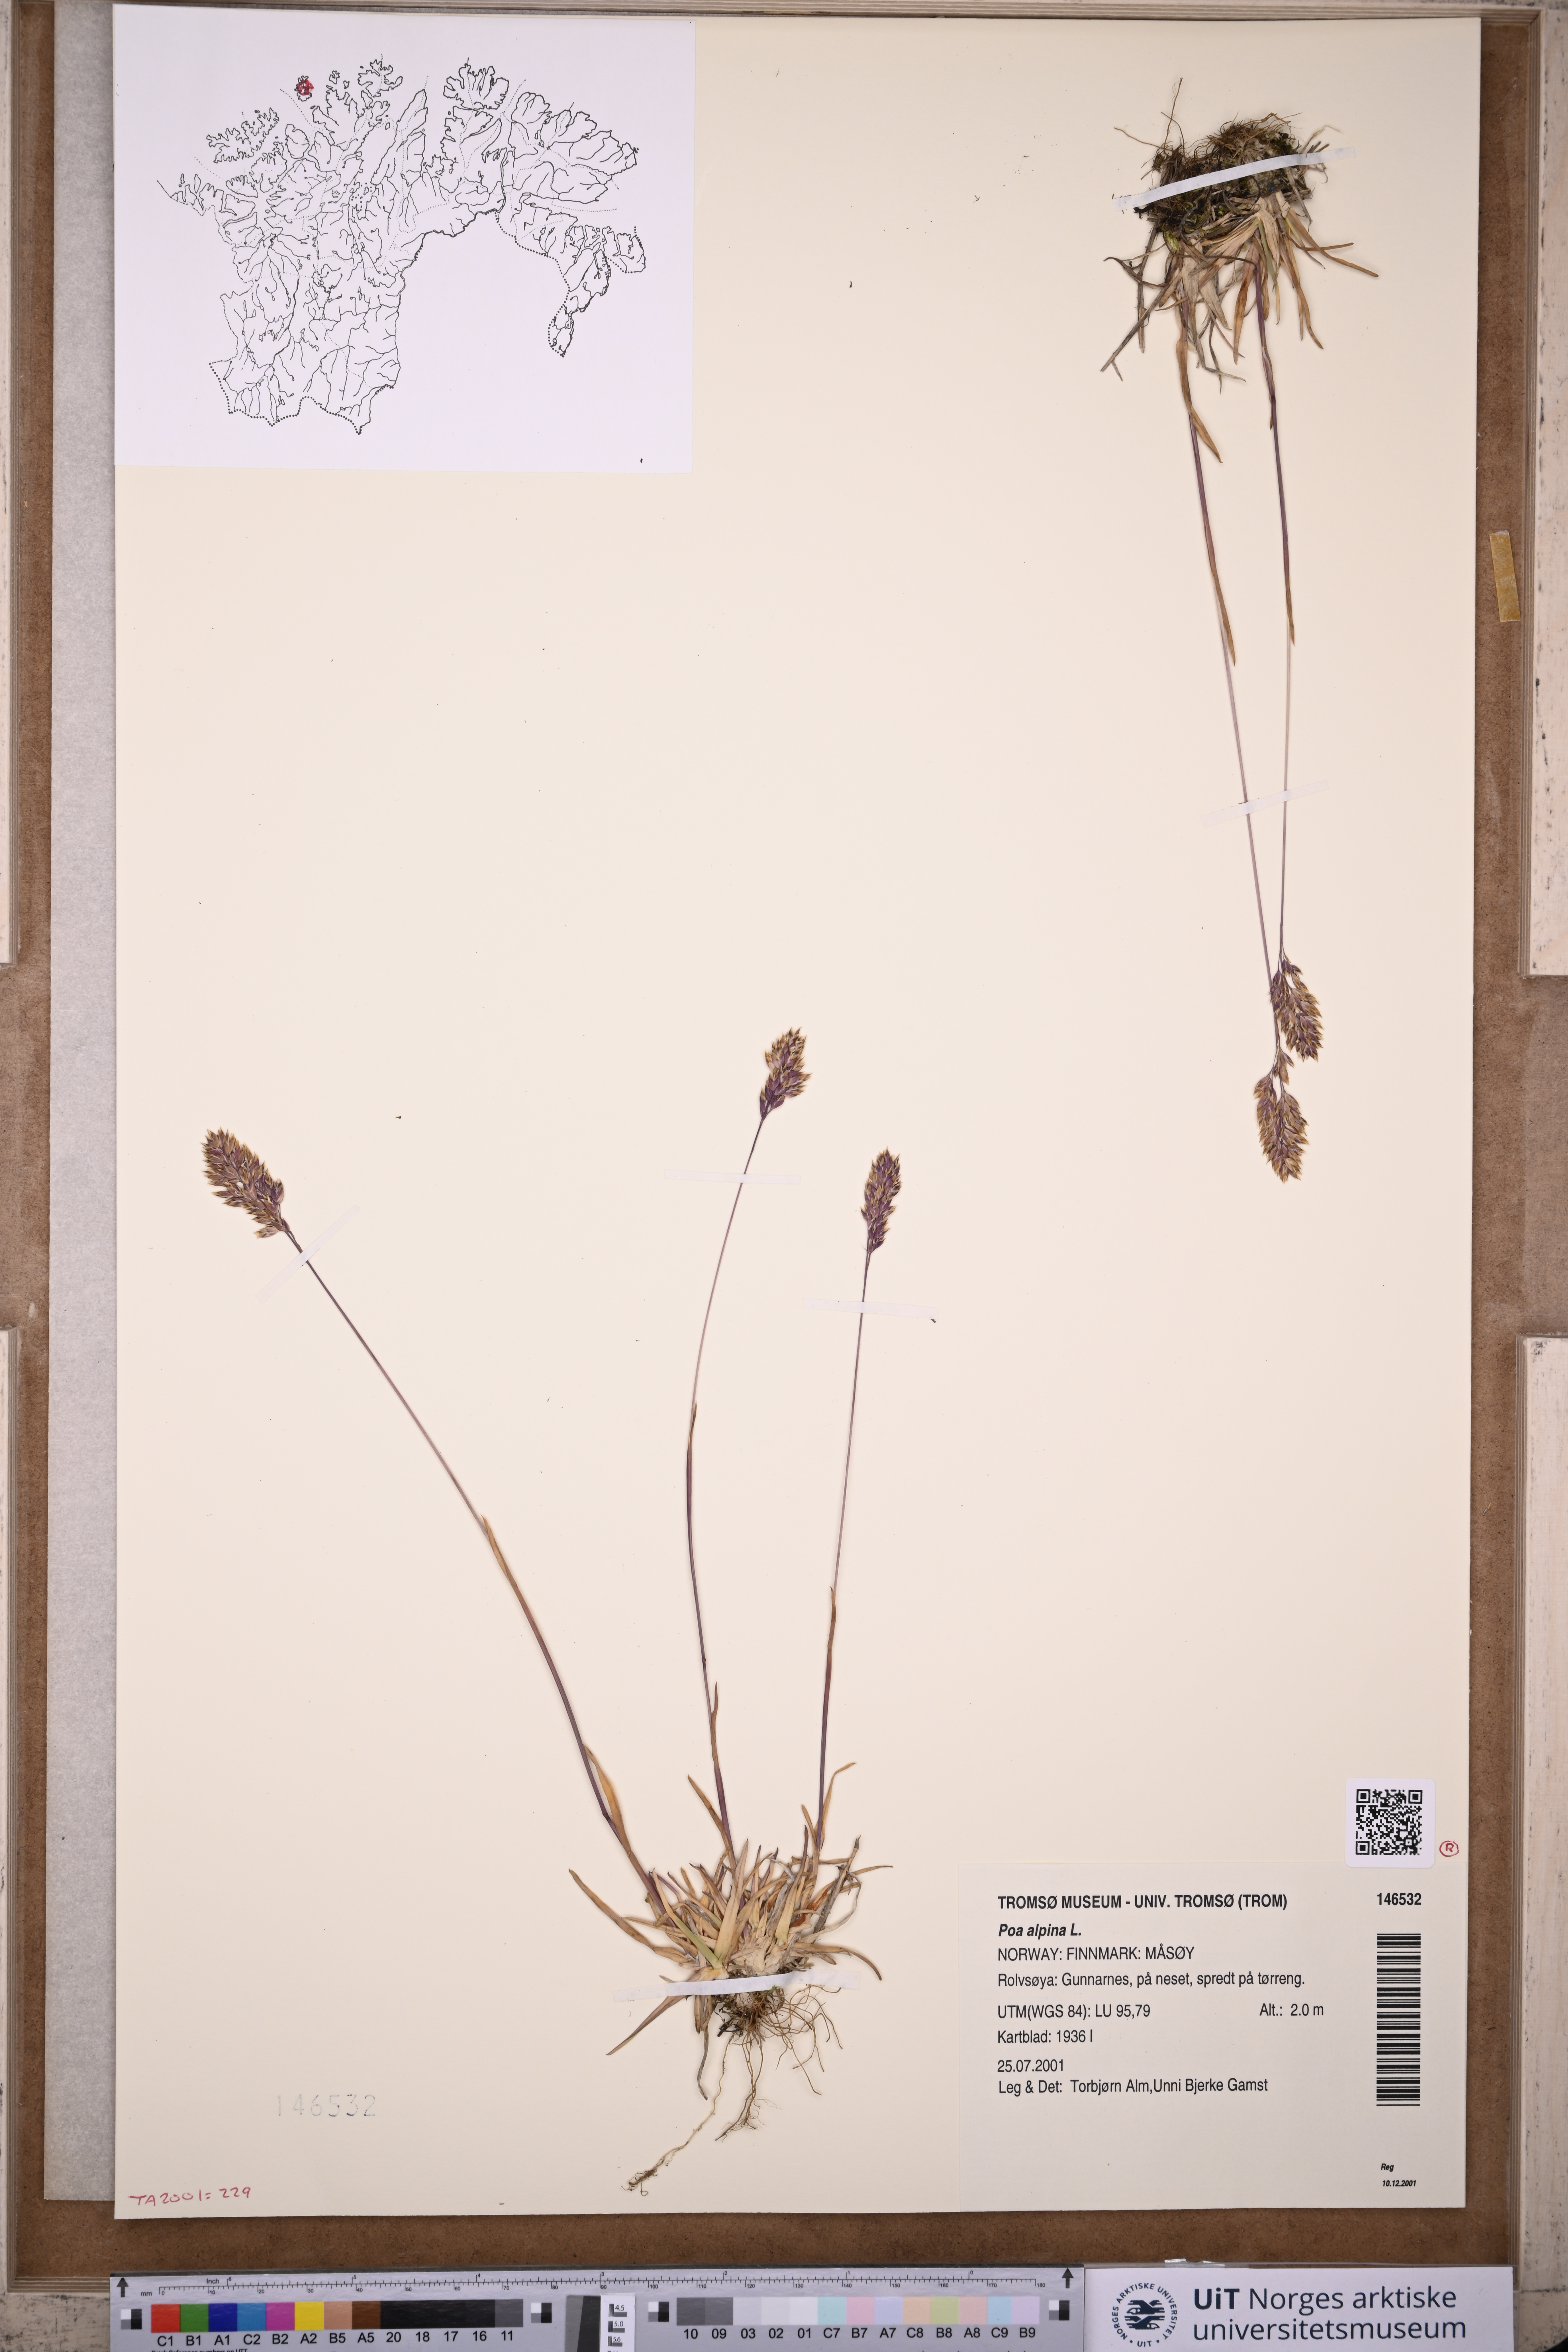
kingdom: Plantae
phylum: Tracheophyta
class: Liliopsida
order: Poales
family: Poaceae
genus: Poa
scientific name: Poa alpina
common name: Alpine bluegrass
